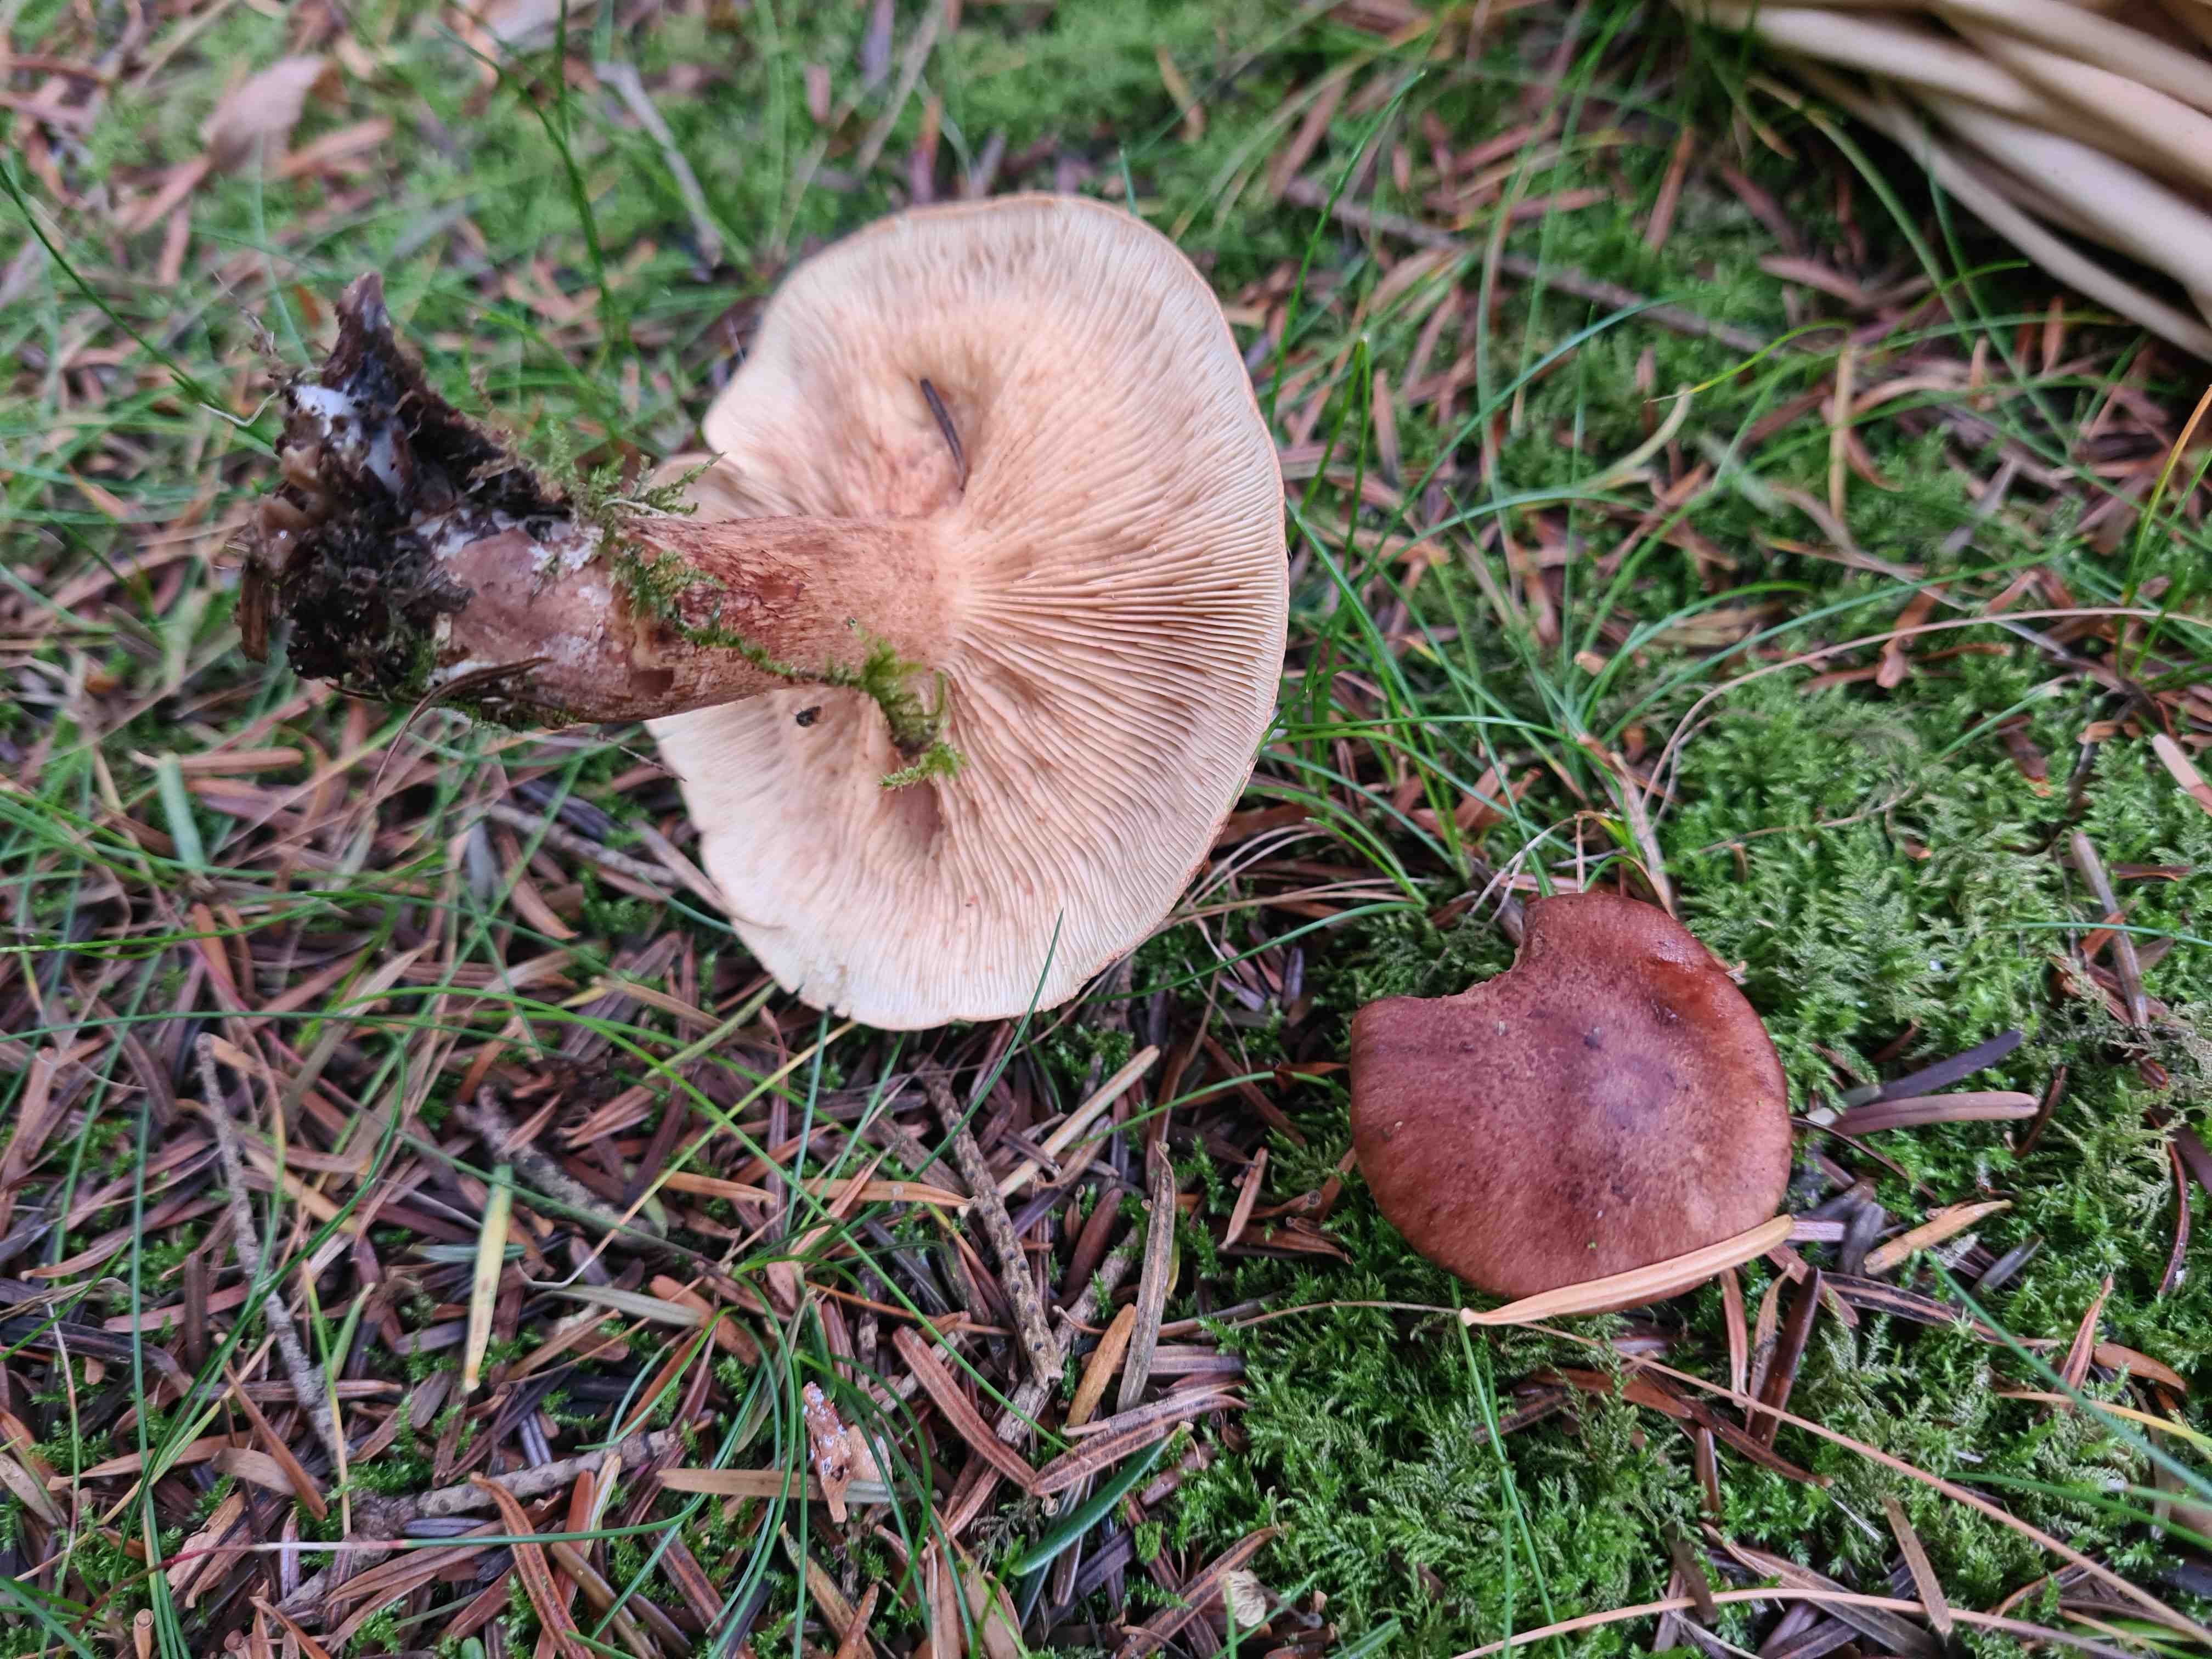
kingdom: Fungi
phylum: Basidiomycota
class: Agaricomycetes
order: Agaricales
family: Tricholomataceae
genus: Tricholoma
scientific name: Tricholoma fulvum
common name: birke-ridderhat
